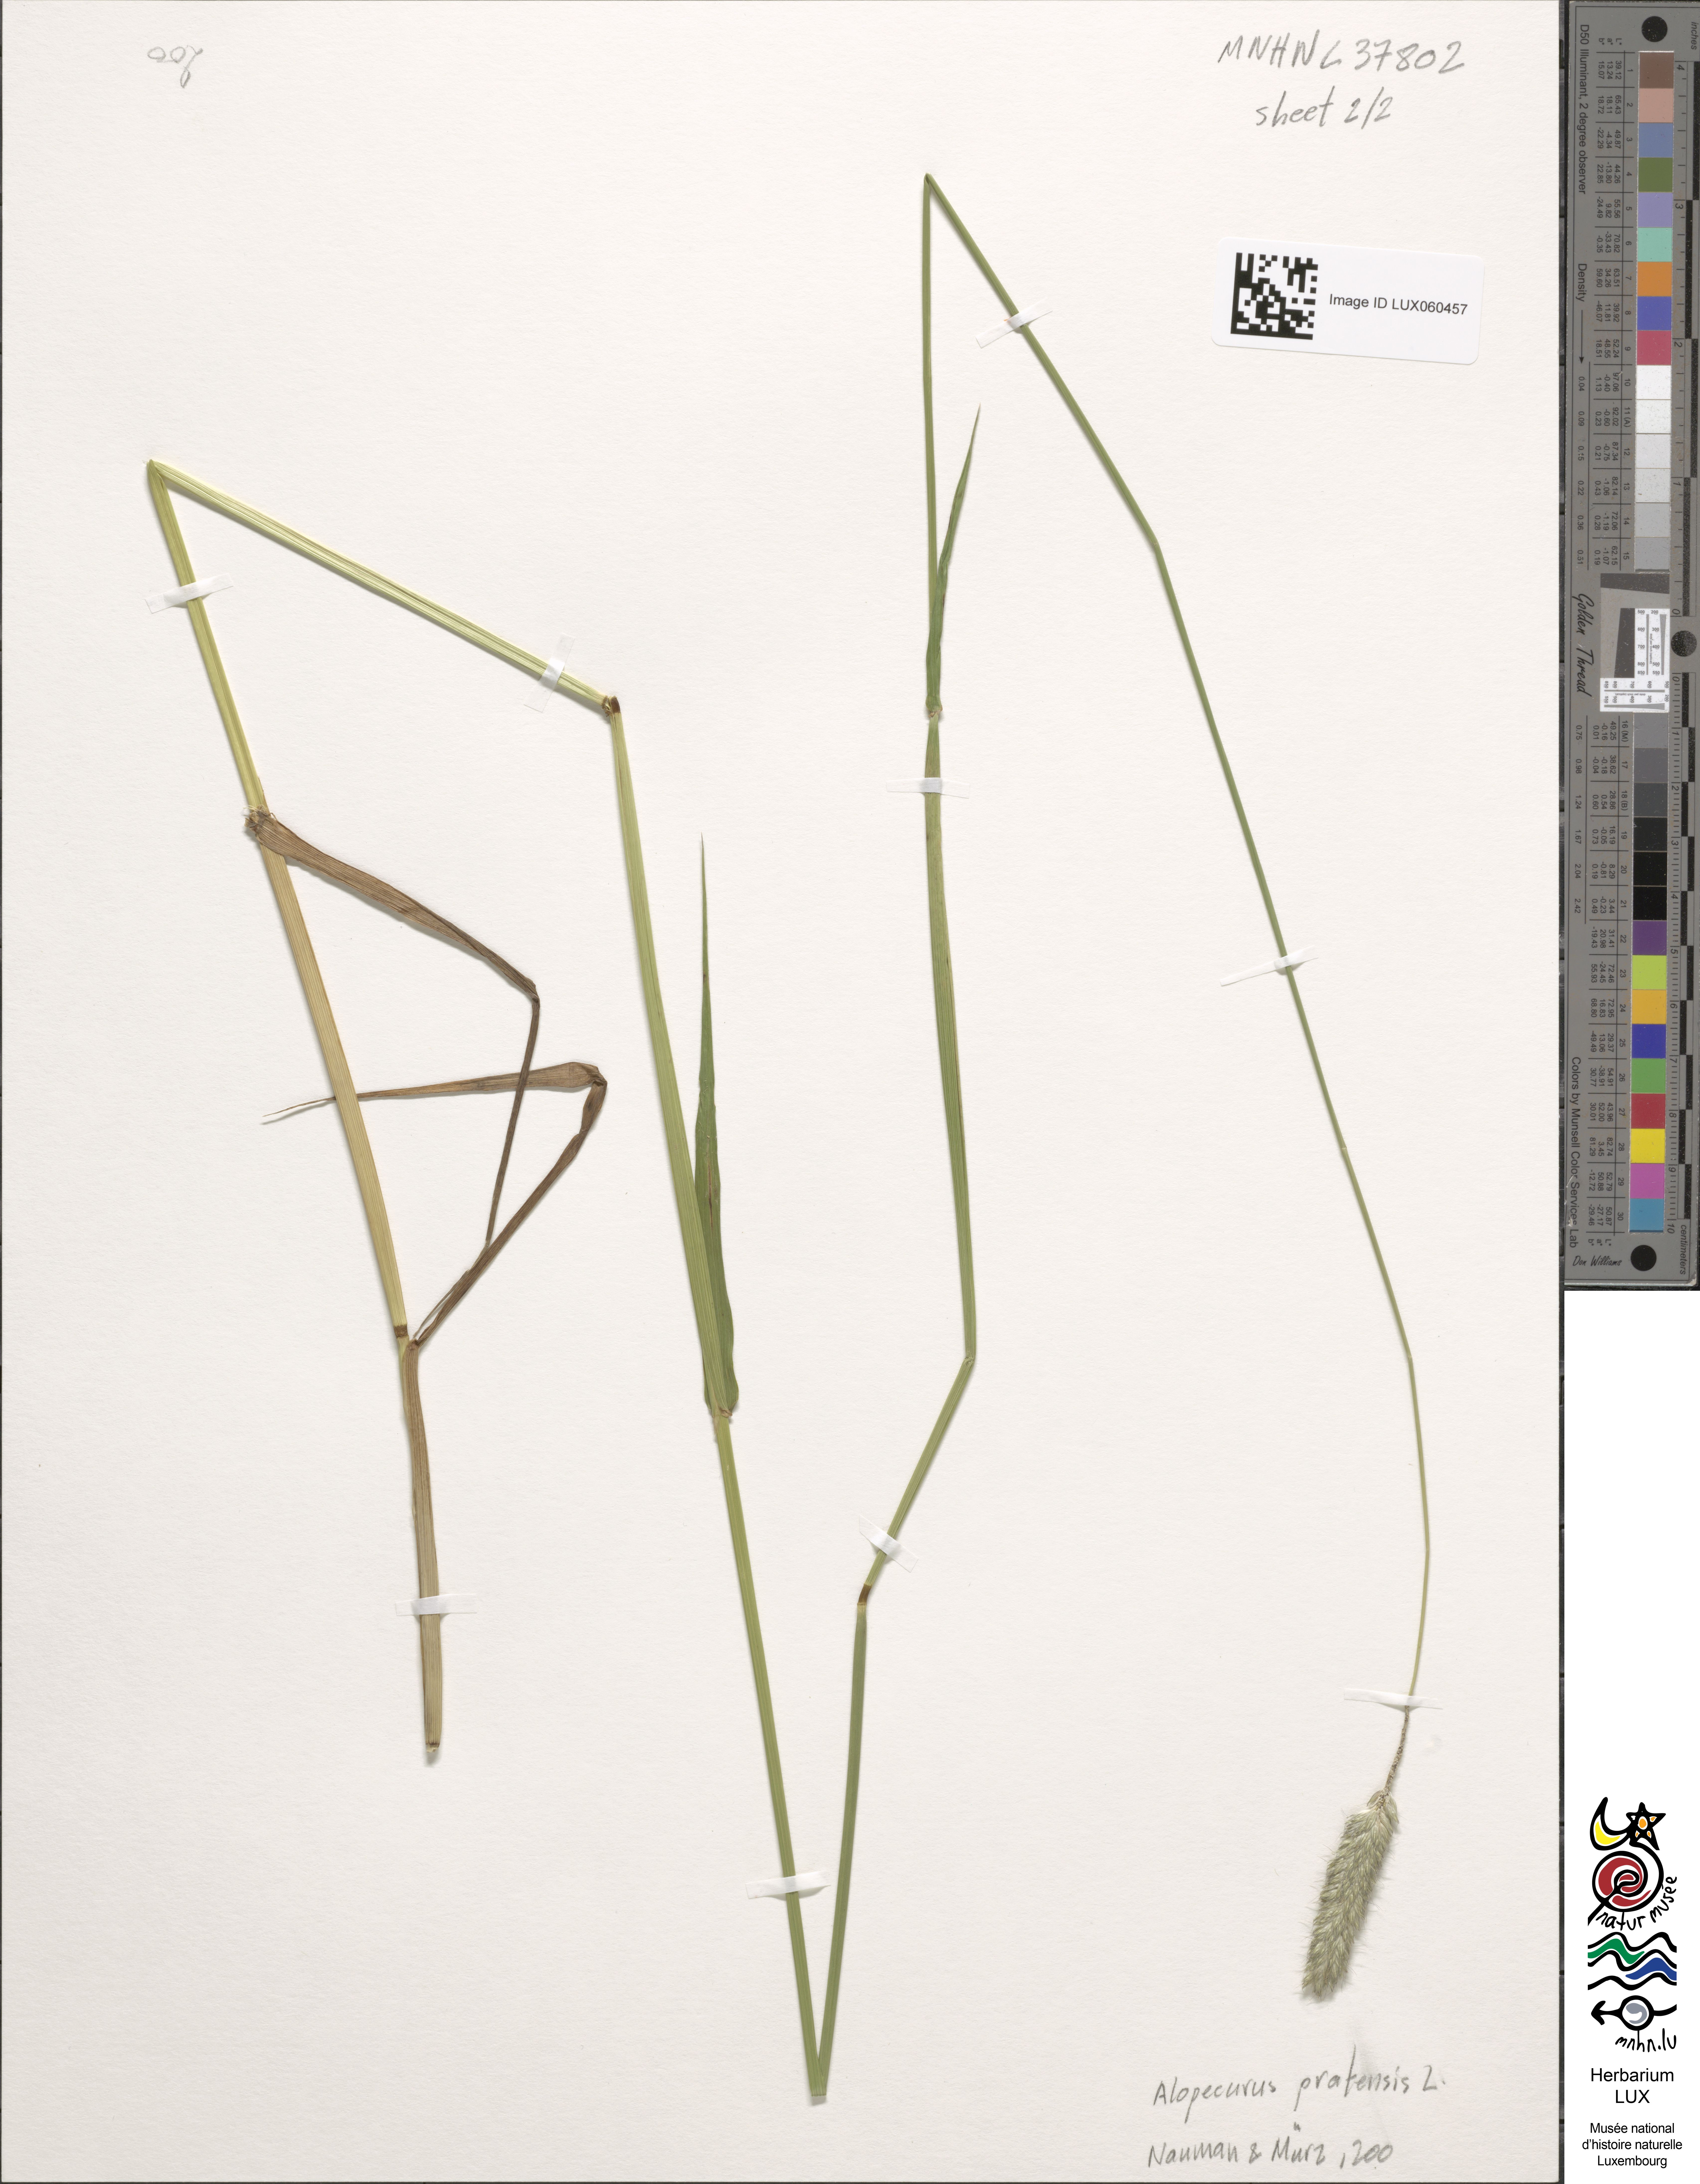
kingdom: Plantae
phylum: Tracheophyta
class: Liliopsida
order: Poales
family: Poaceae
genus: Alopecurus
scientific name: Alopecurus pratensis
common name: Meadow foxtail
